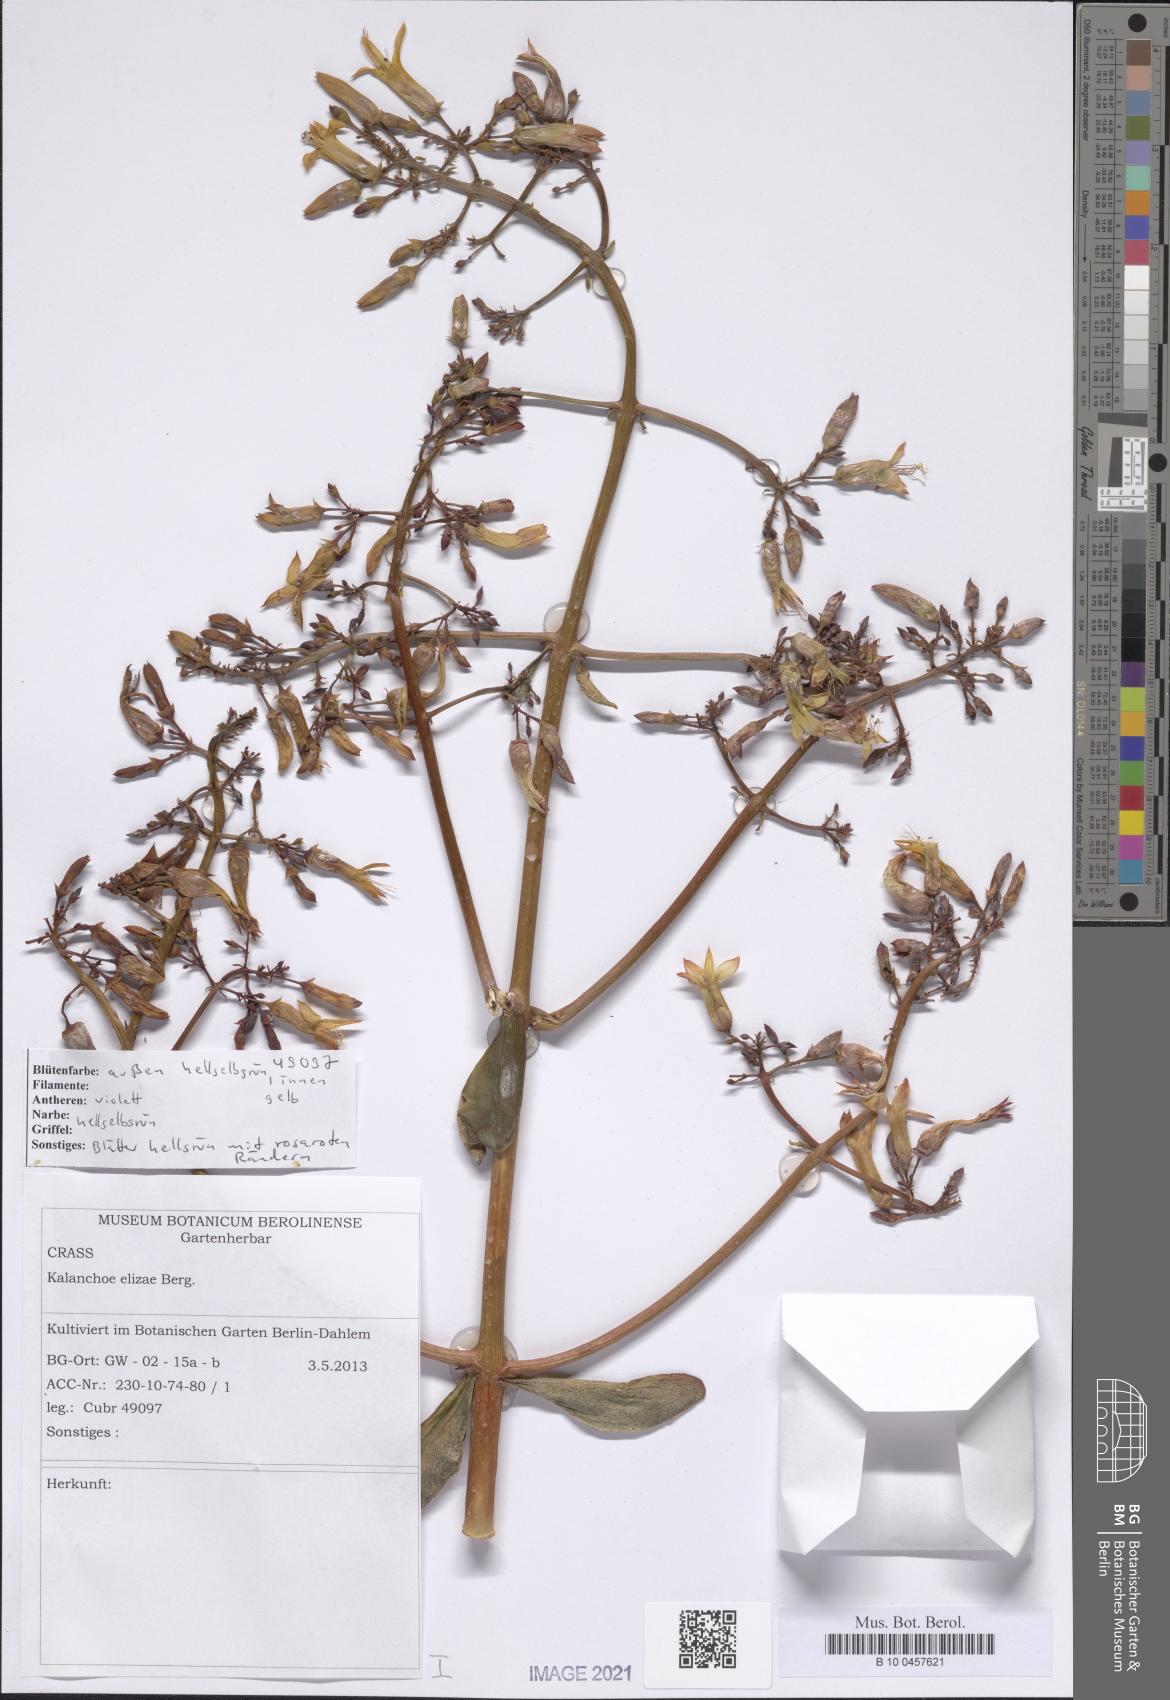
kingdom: Plantae
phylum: Tracheophyta
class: Magnoliopsida
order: Saxifragales
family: Crassulaceae
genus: Kalanchoe
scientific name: Kalanchoe elizae
